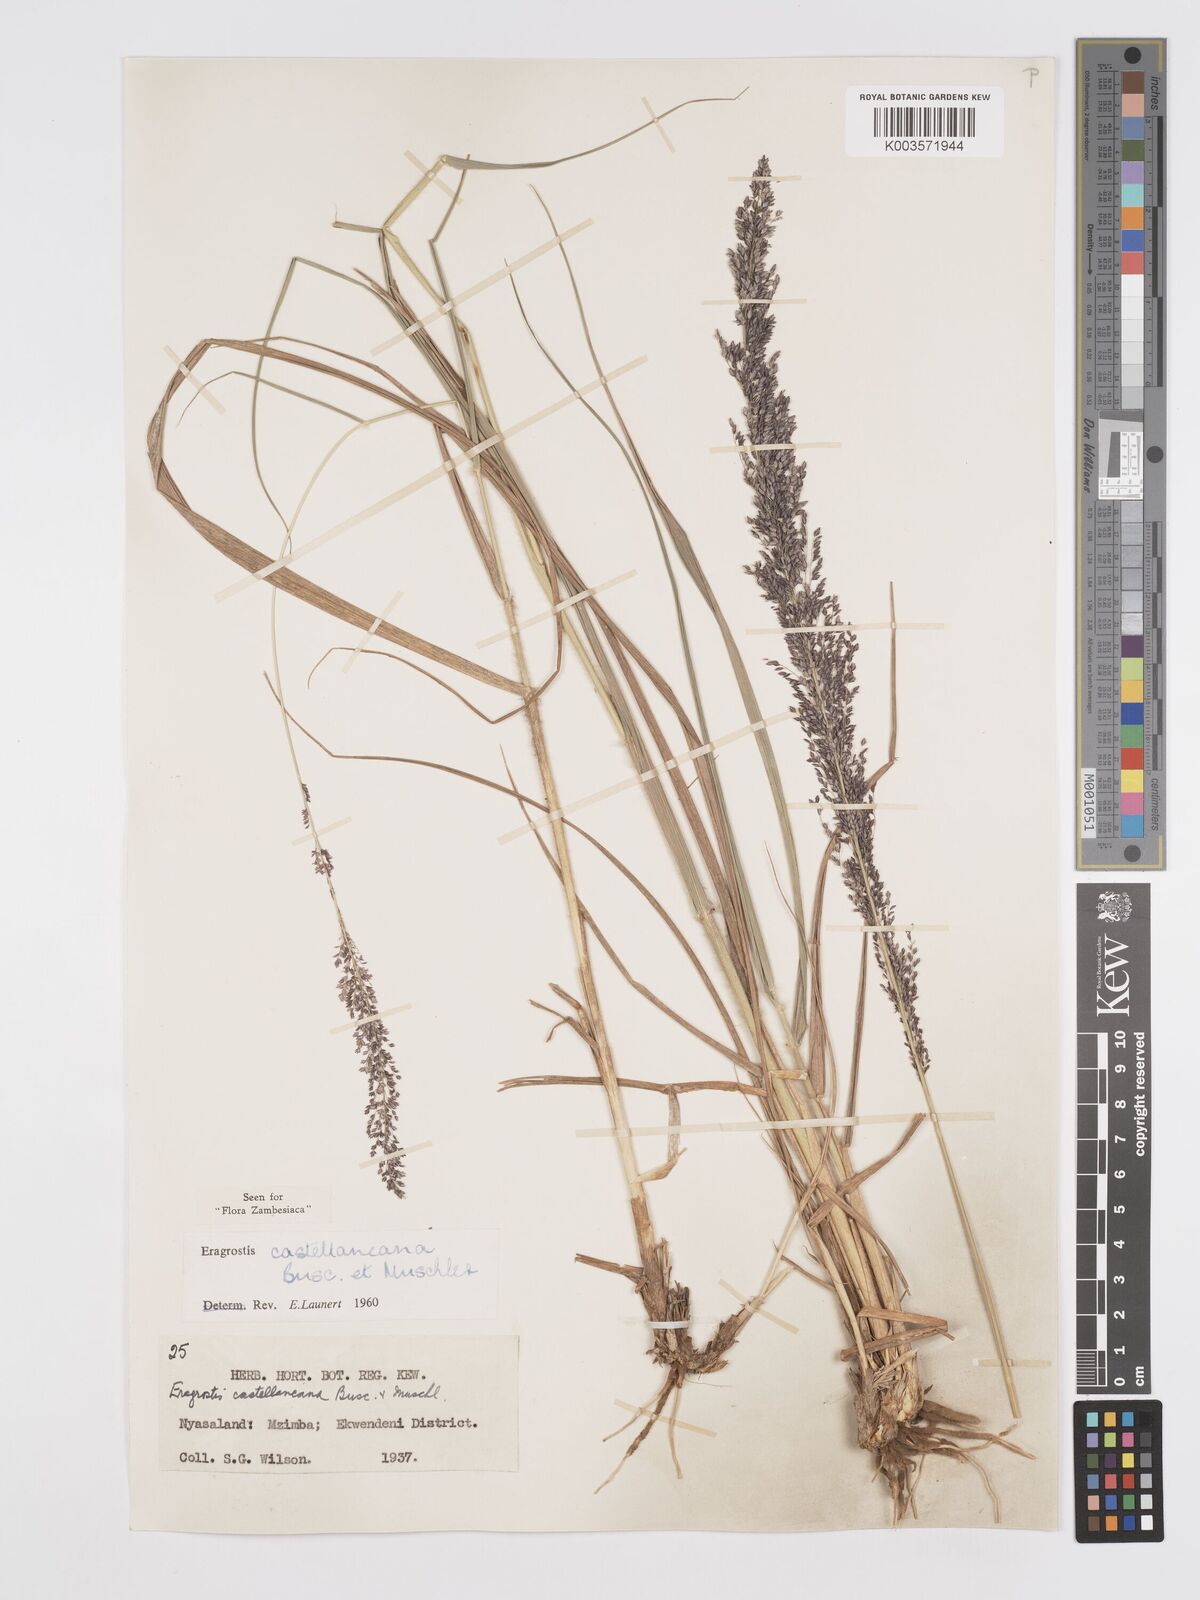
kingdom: Plantae
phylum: Tracheophyta
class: Liliopsida
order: Poales
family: Poaceae
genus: Eragrostis
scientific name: Eragrostis castellaneana
